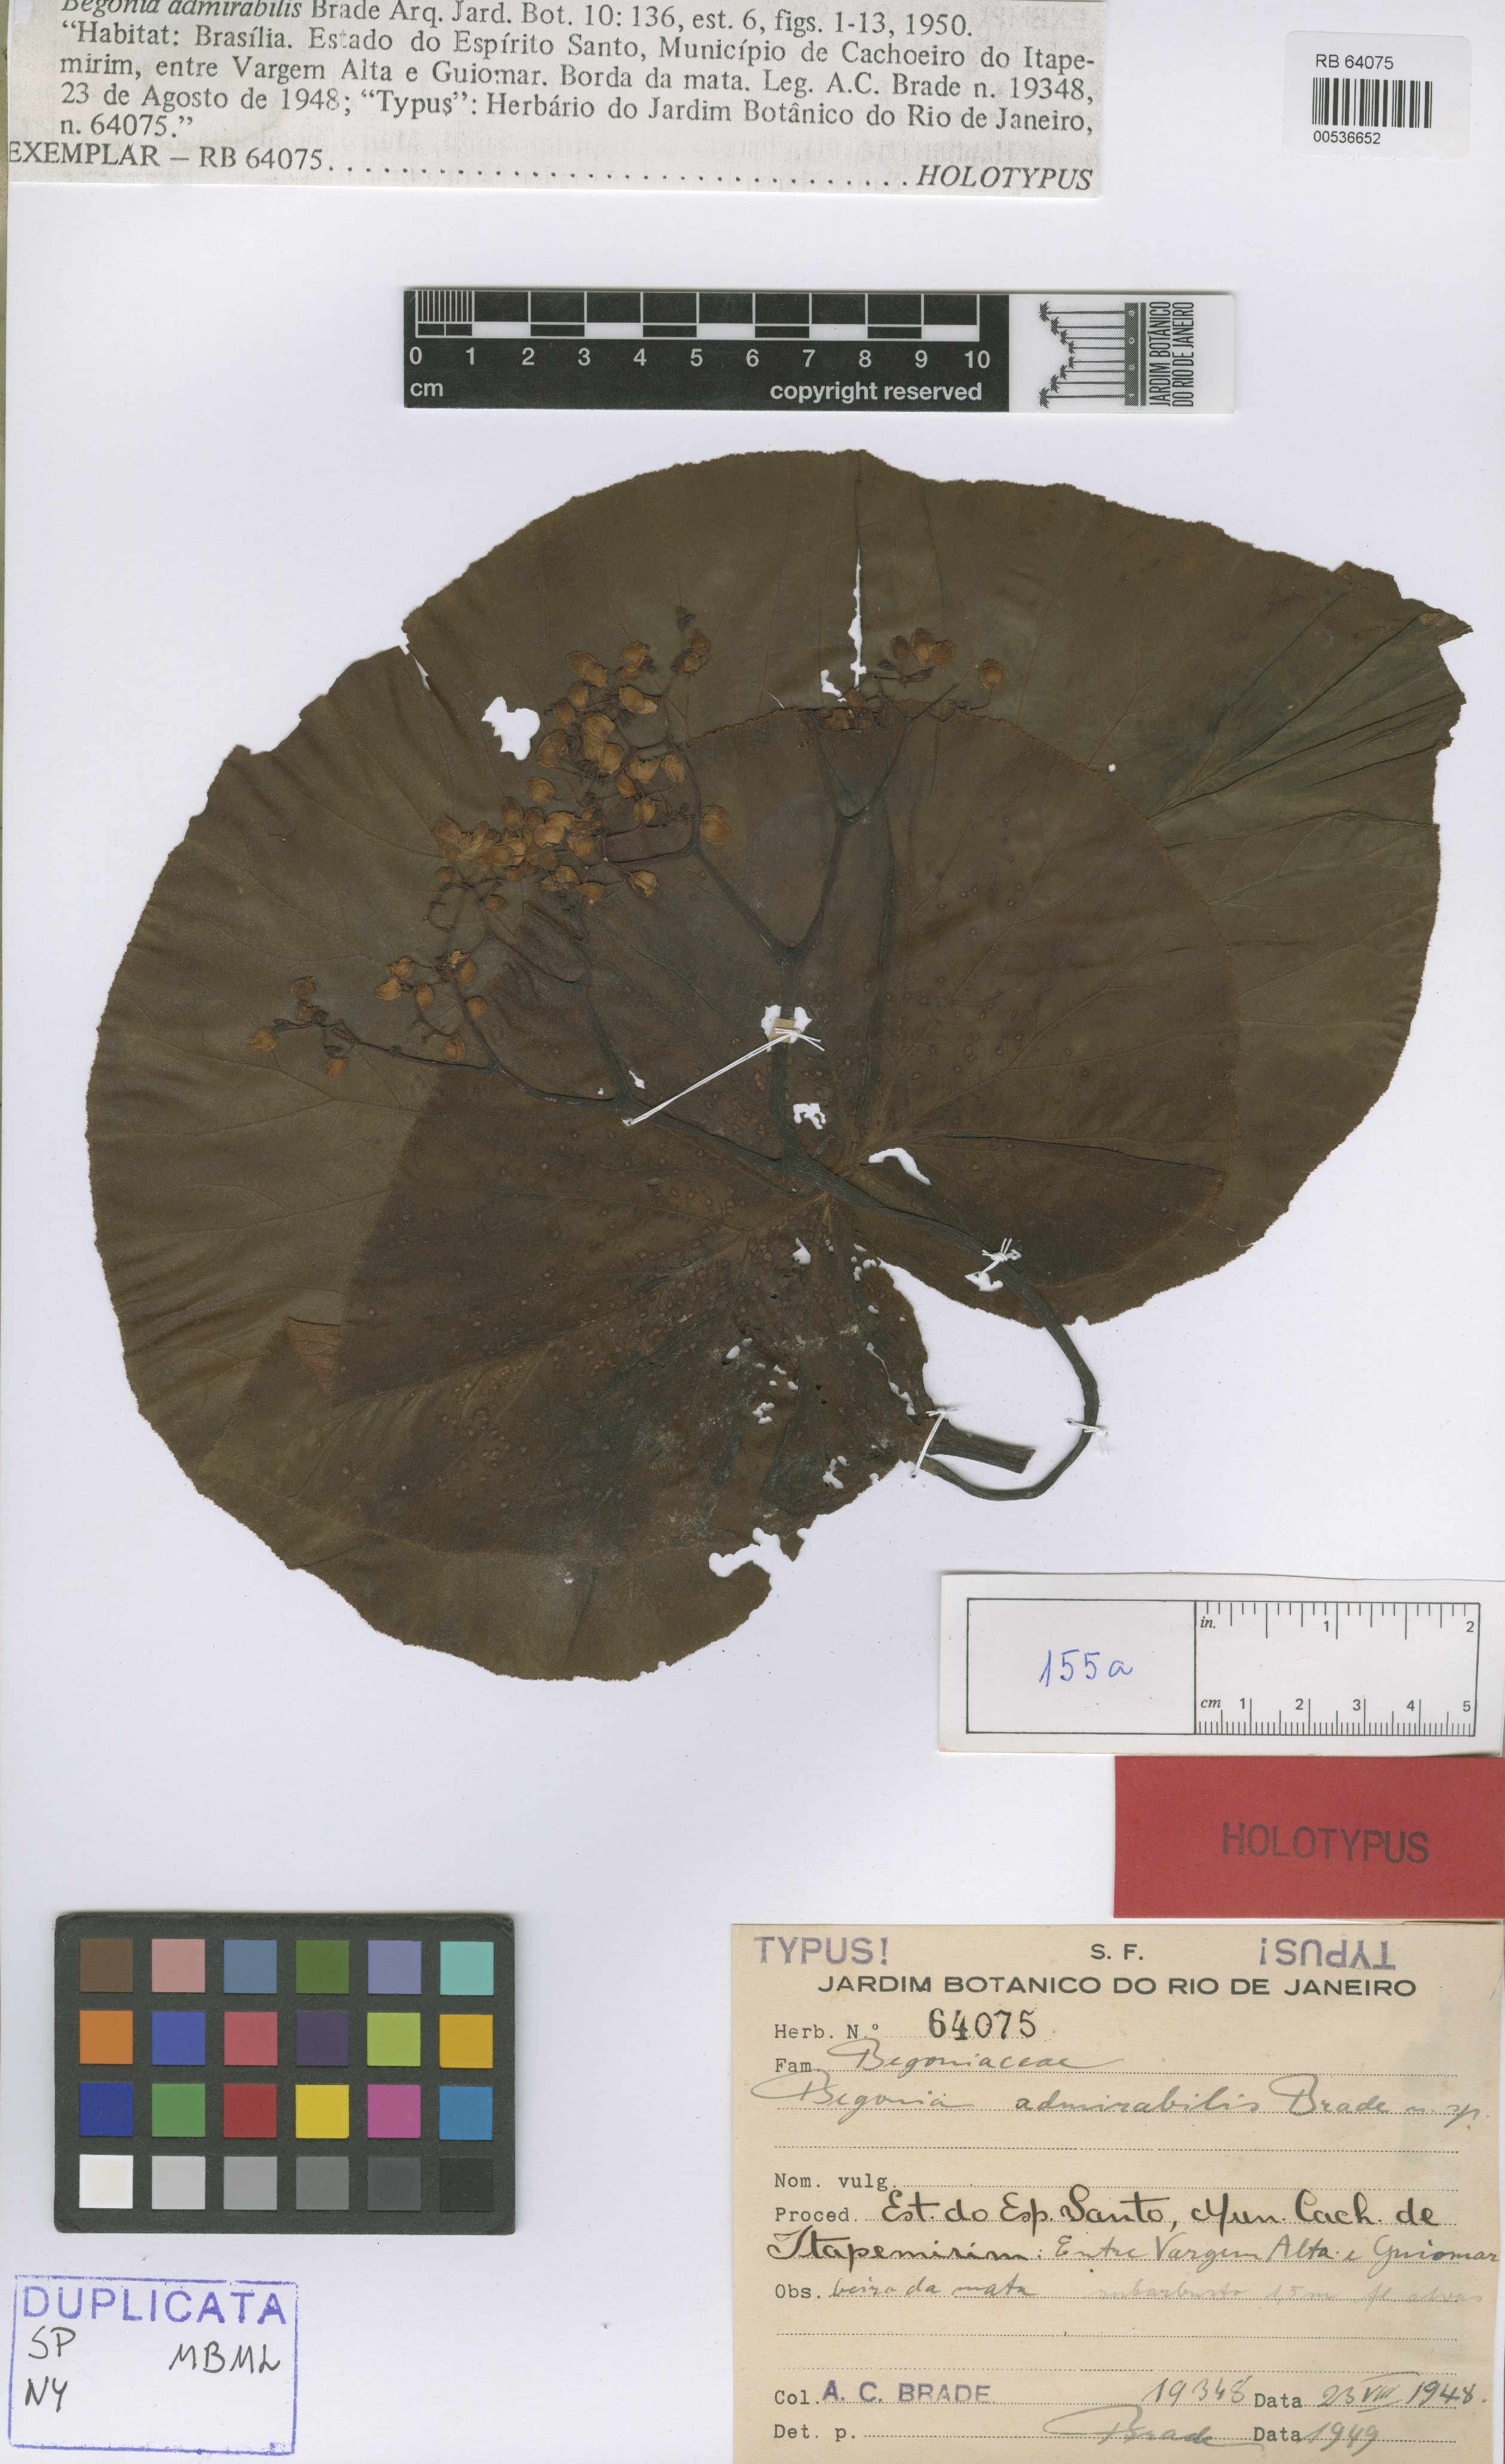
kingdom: Plantae
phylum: Tracheophyta
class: Magnoliopsida
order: Cucurbitales
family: Begoniaceae
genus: Begonia
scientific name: Begonia admirabilis
